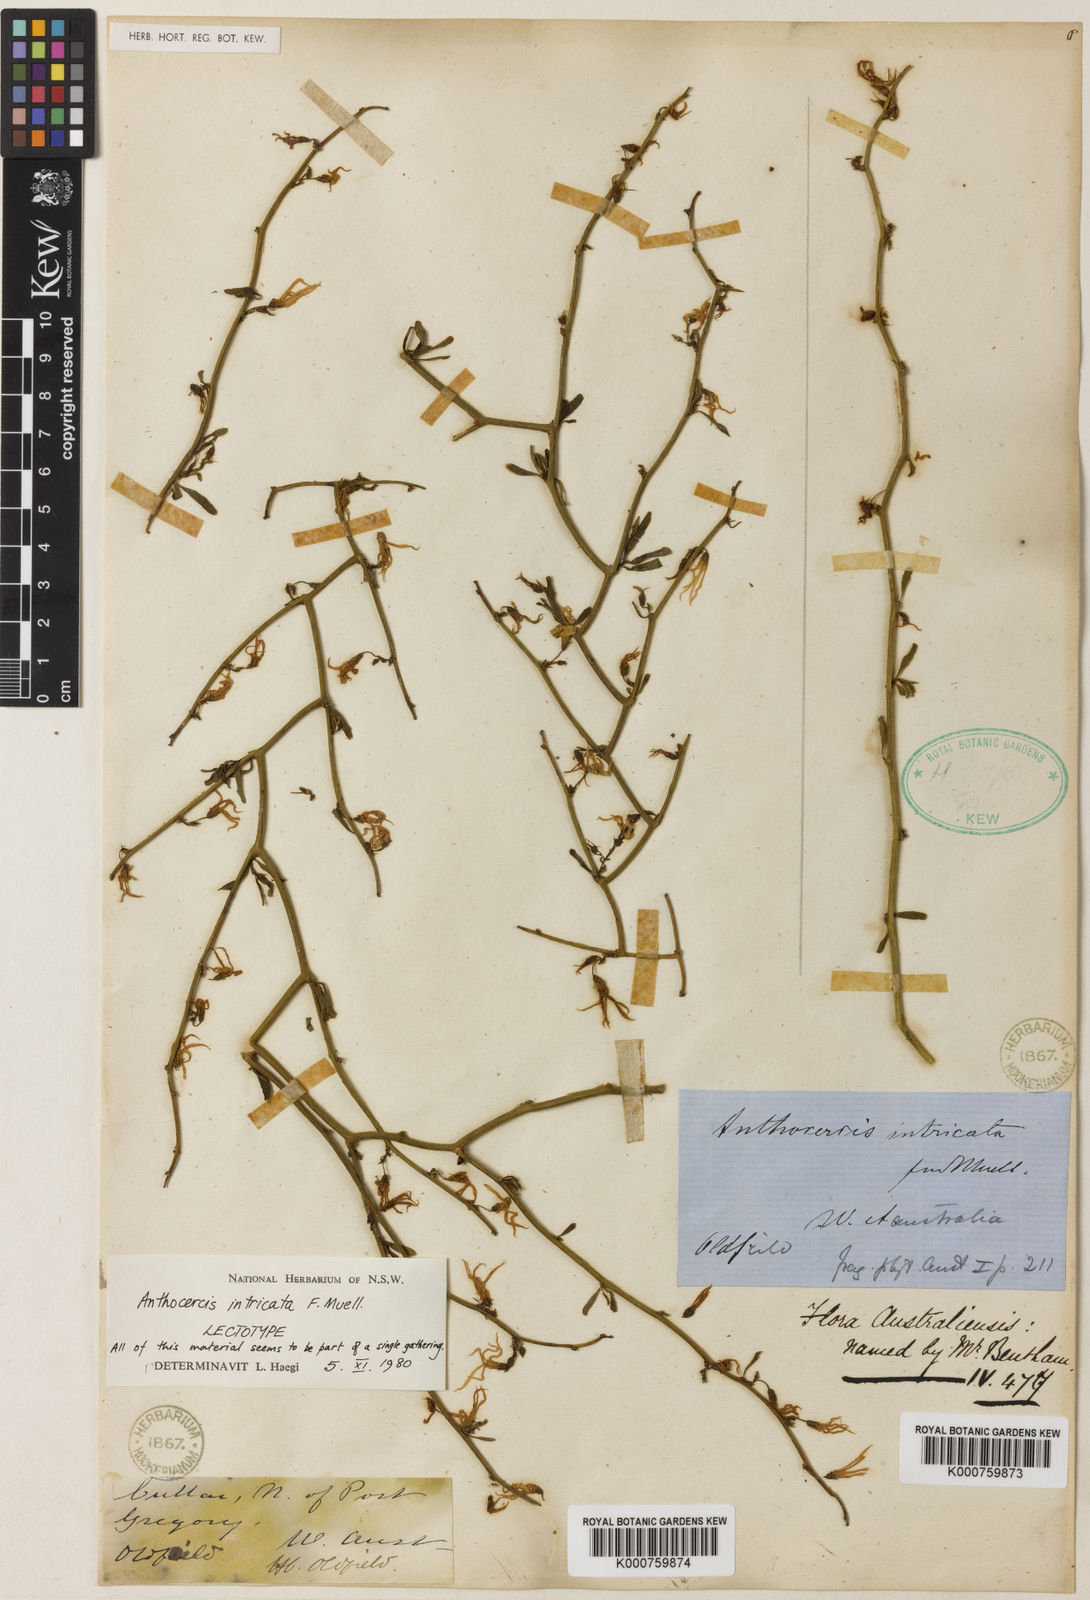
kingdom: Plantae
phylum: Tracheophyta
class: Magnoliopsida
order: Solanales
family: Solanaceae
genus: Anthocercis
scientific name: Anthocercis intricata
